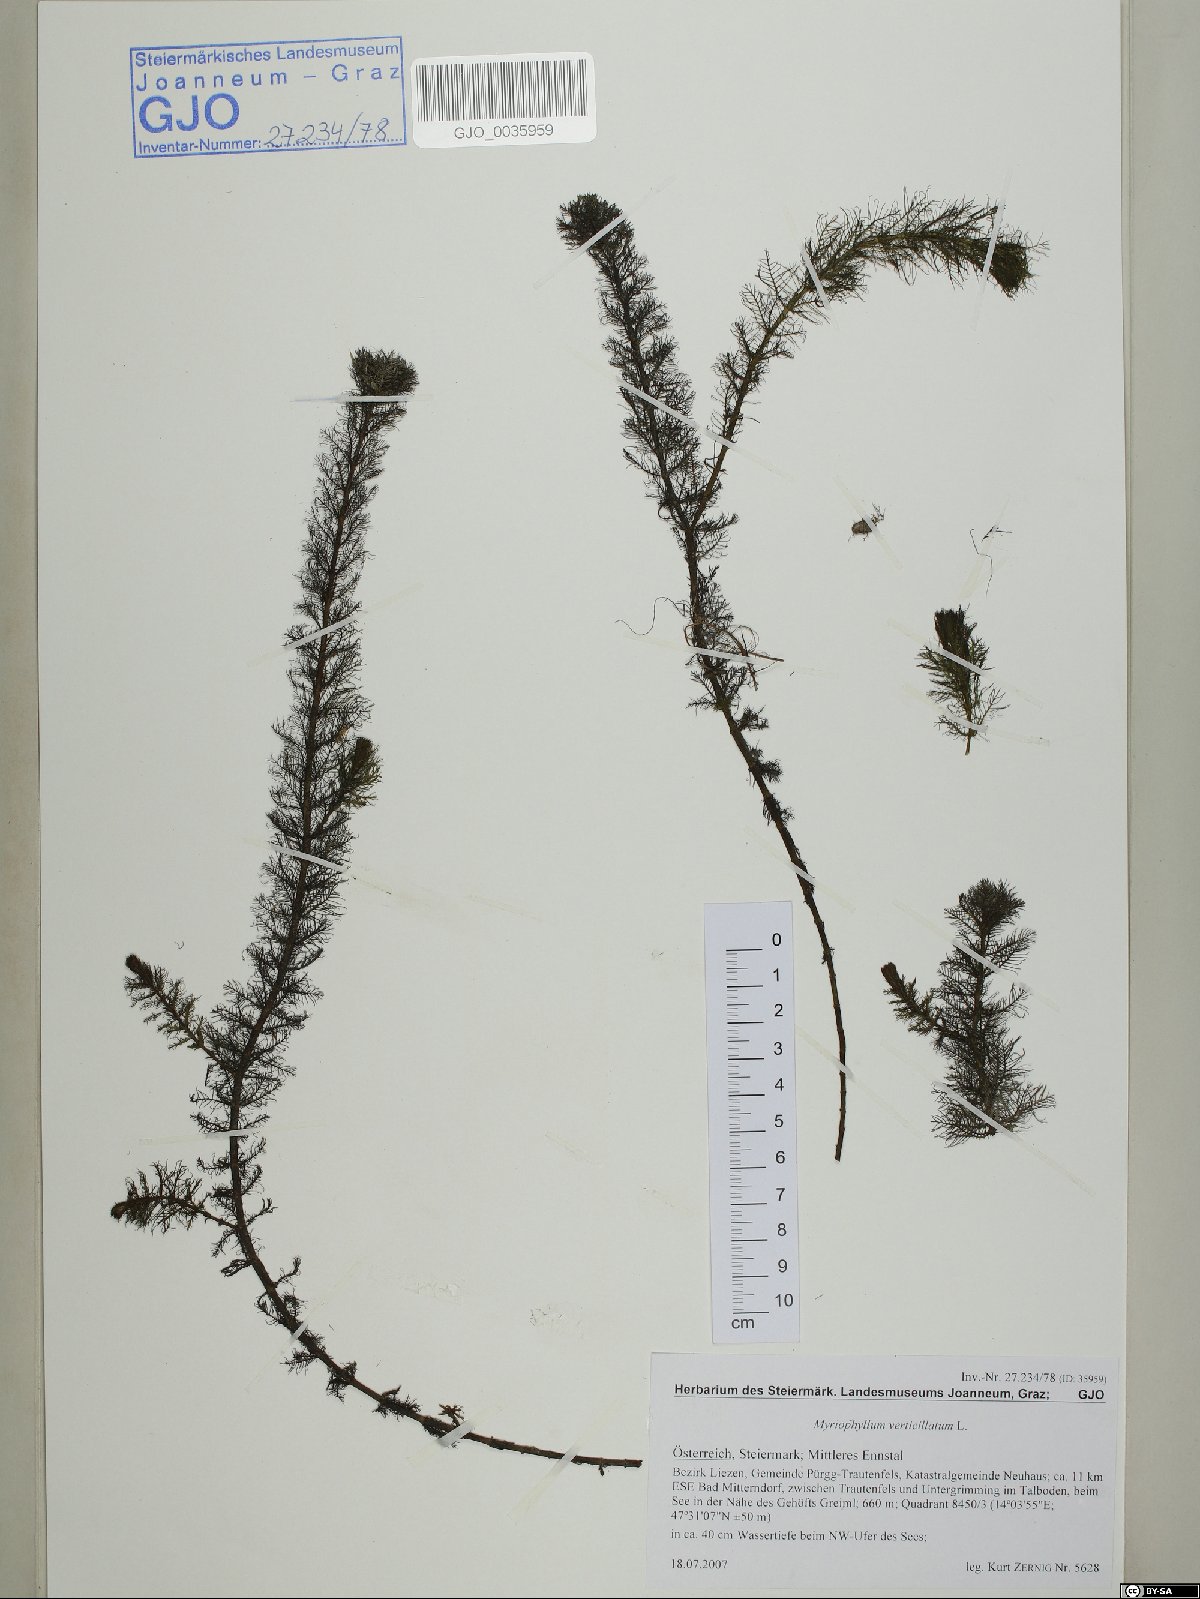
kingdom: Plantae
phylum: Tracheophyta
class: Magnoliopsida
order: Saxifragales
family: Haloragaceae
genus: Myriophyllum
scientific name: Myriophyllum verticillatum
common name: Whorled water-milfoil
